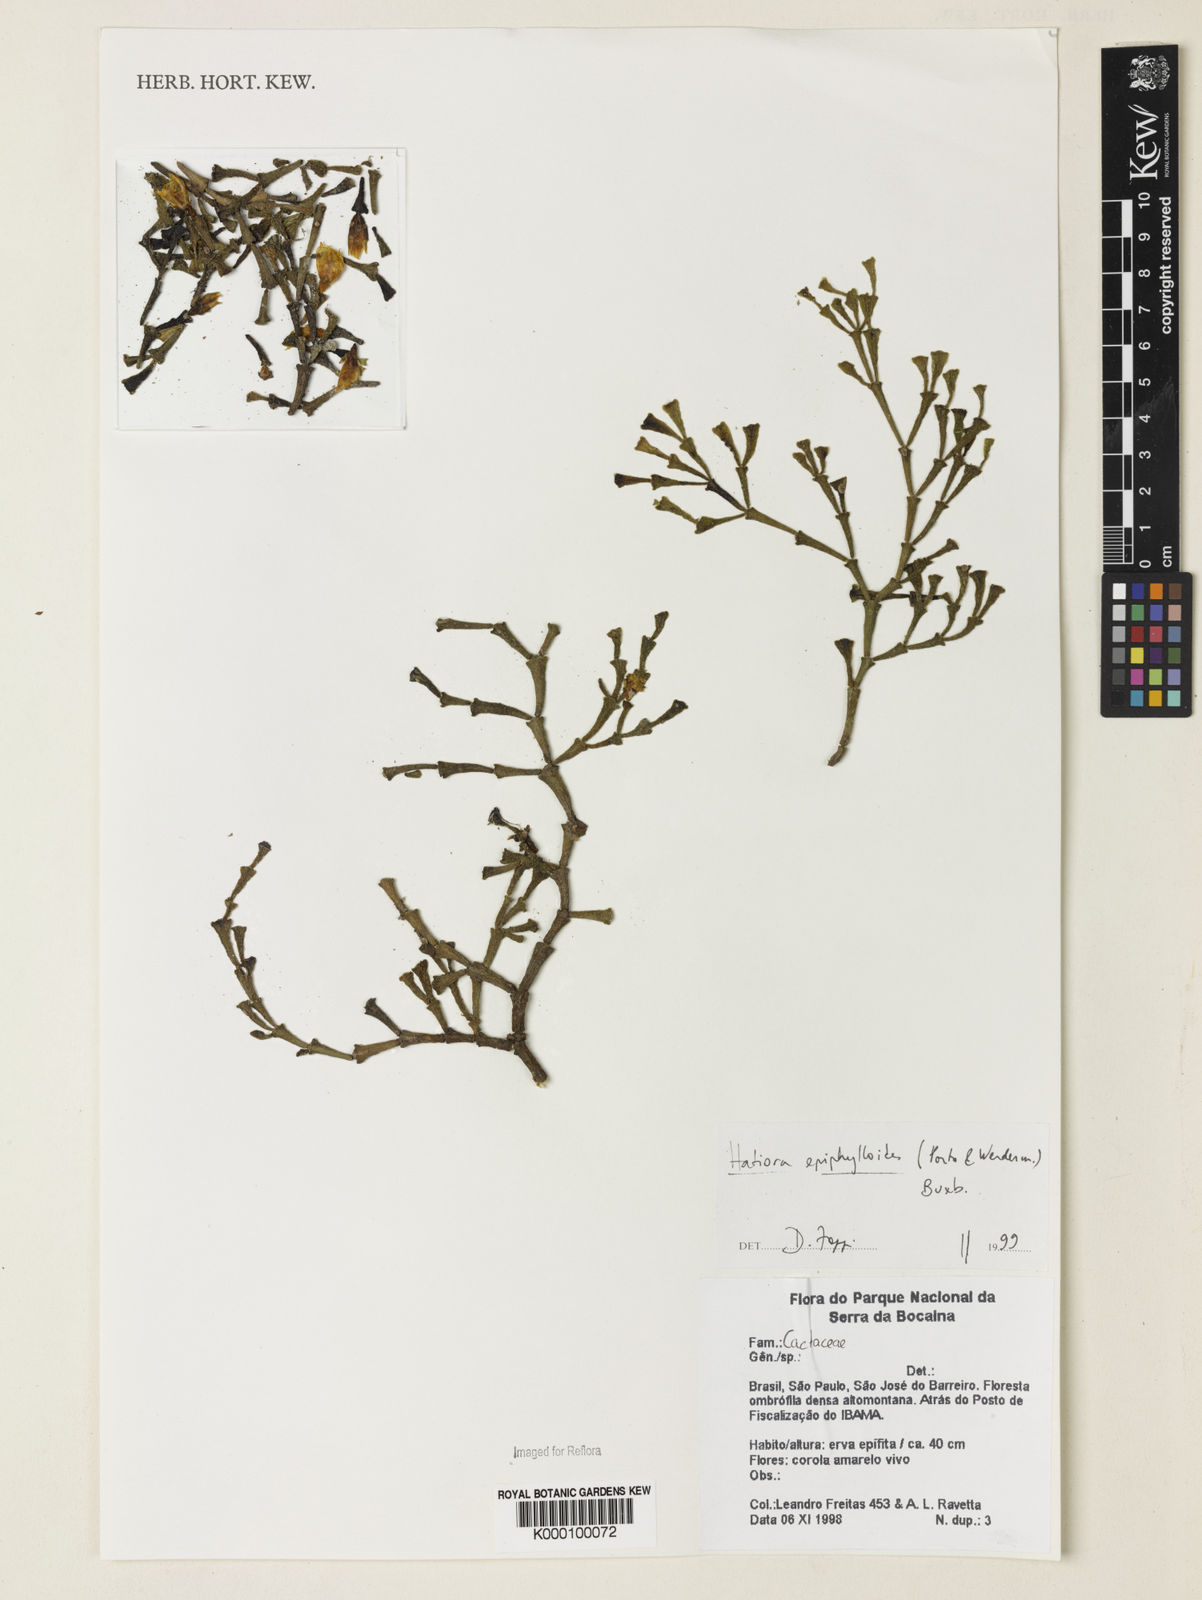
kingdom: Plantae
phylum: Tracheophyta
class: Magnoliopsida
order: Caryophyllales
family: Cactaceae
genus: Hatiora
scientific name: Hatiora
